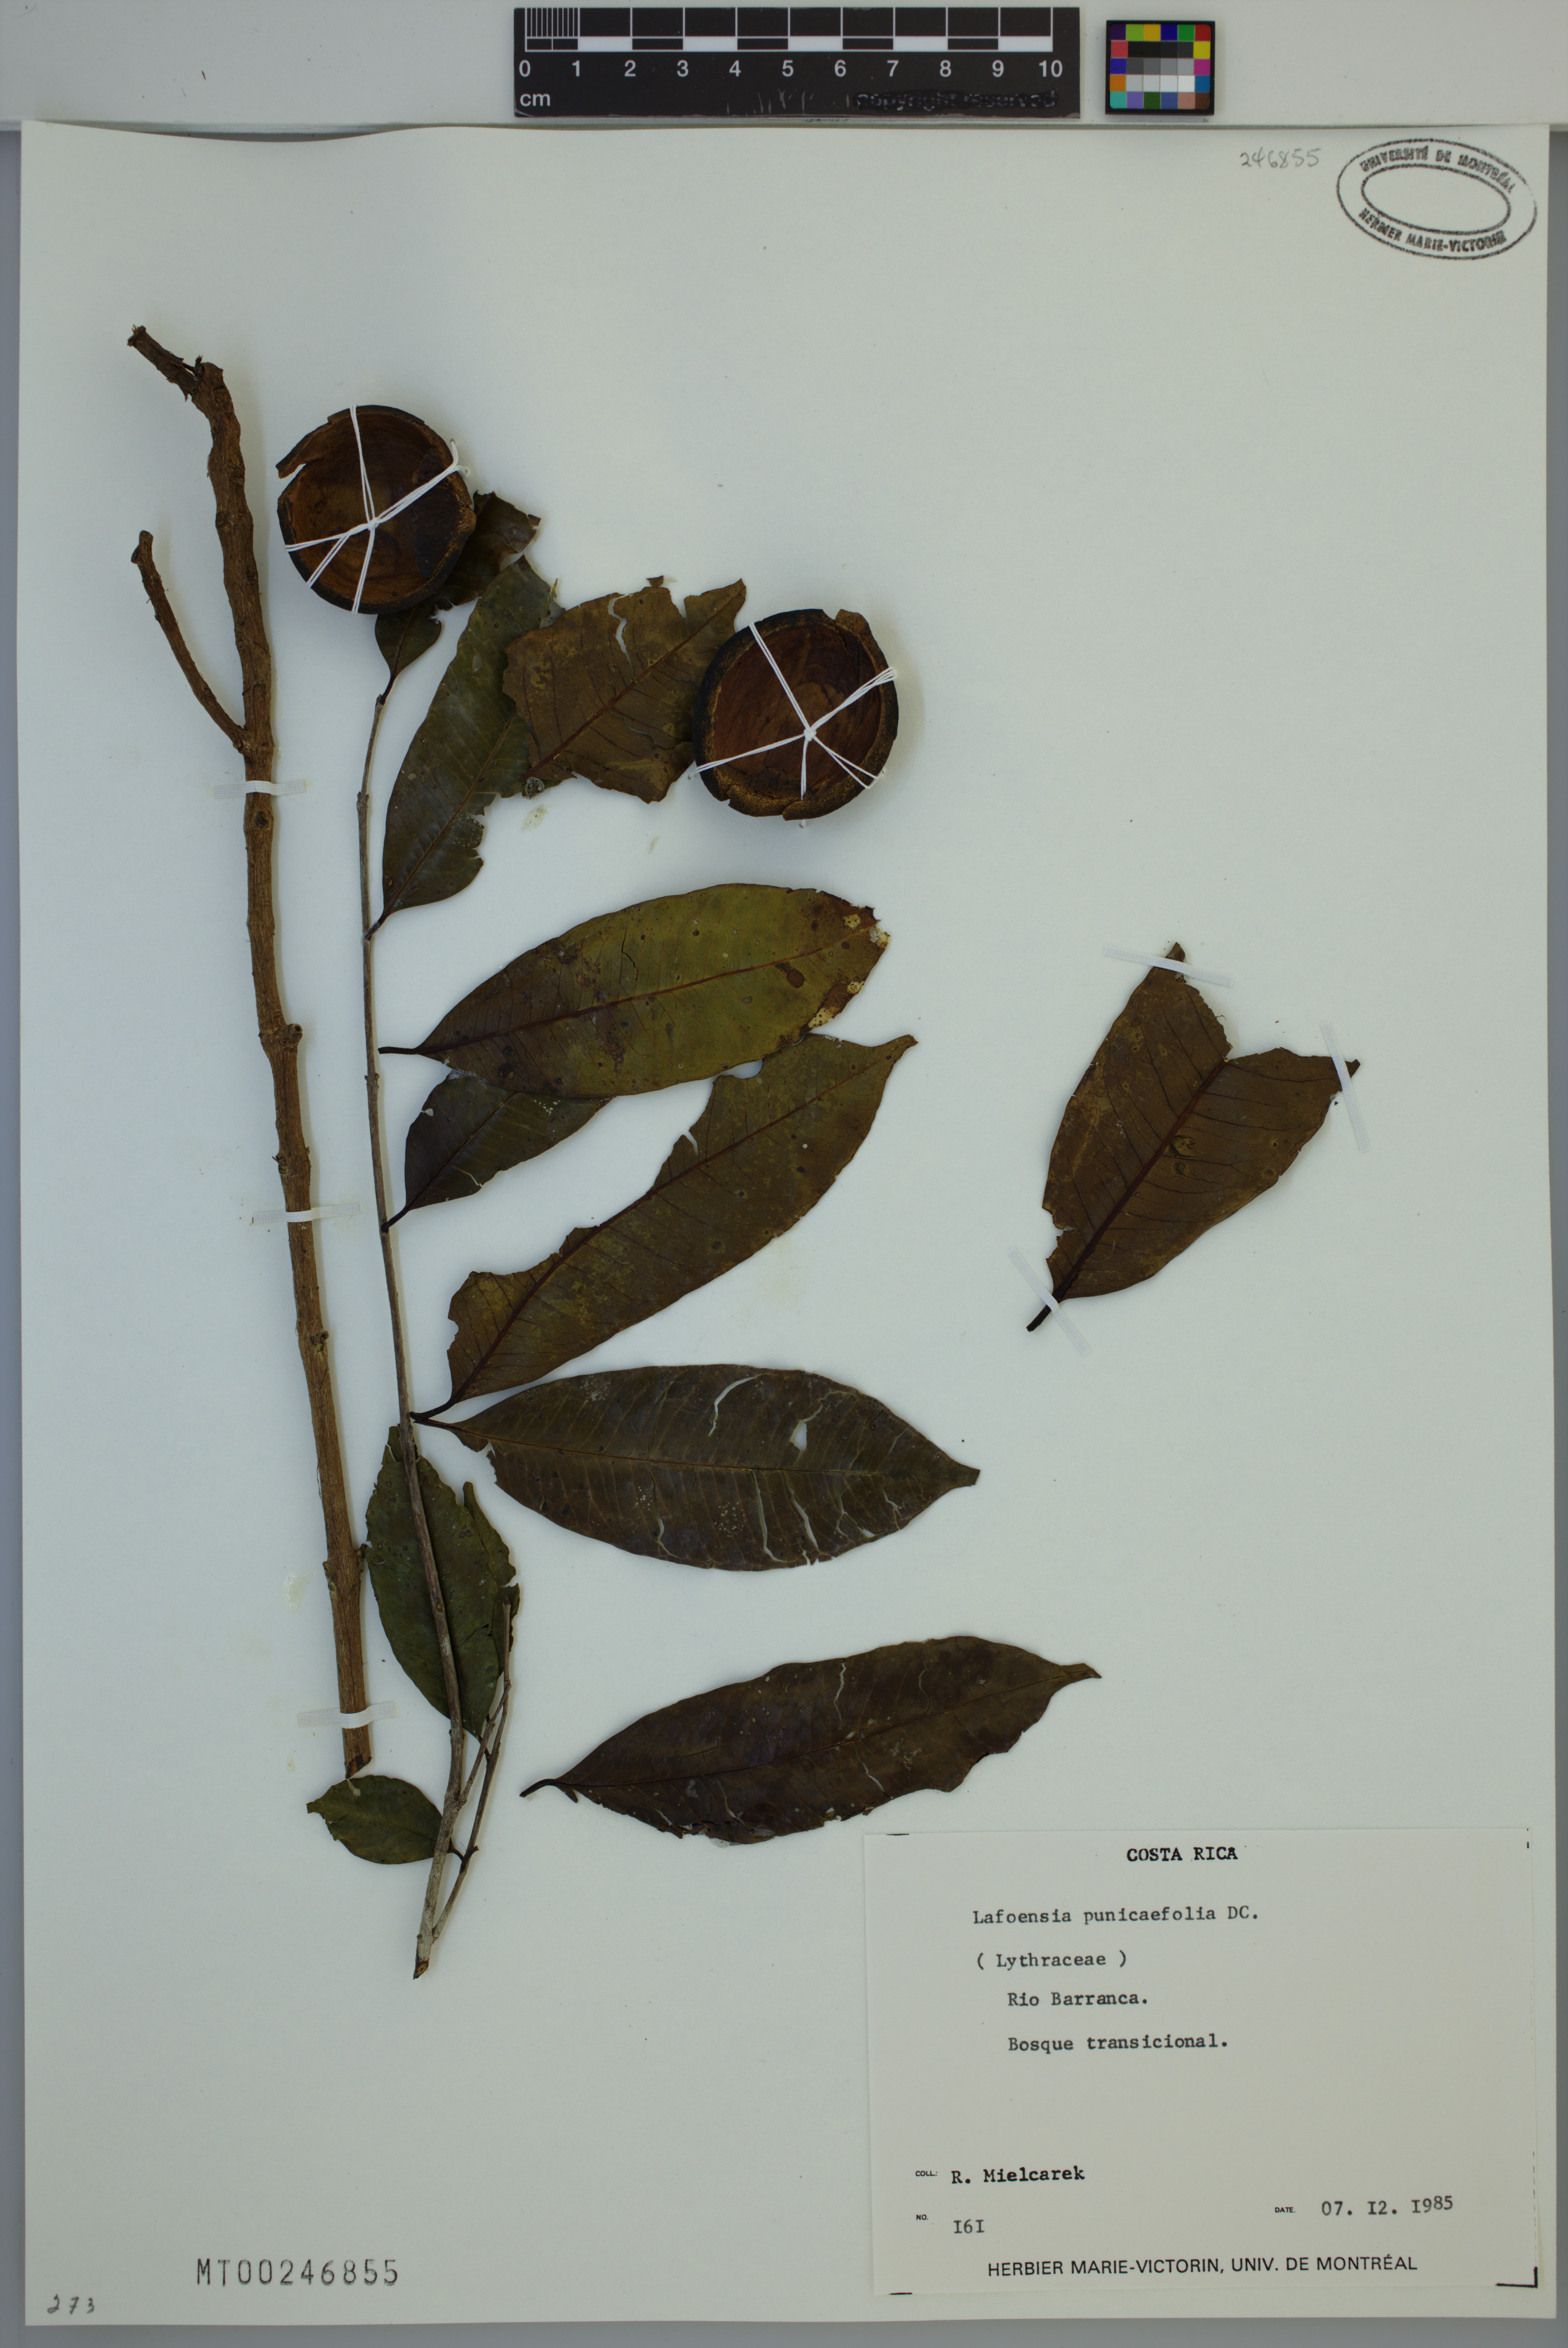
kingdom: Plantae
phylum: Tracheophyta
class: Magnoliopsida
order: Myrtales
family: Lythraceae
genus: Lafoensia
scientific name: Lafoensia punicifolia
